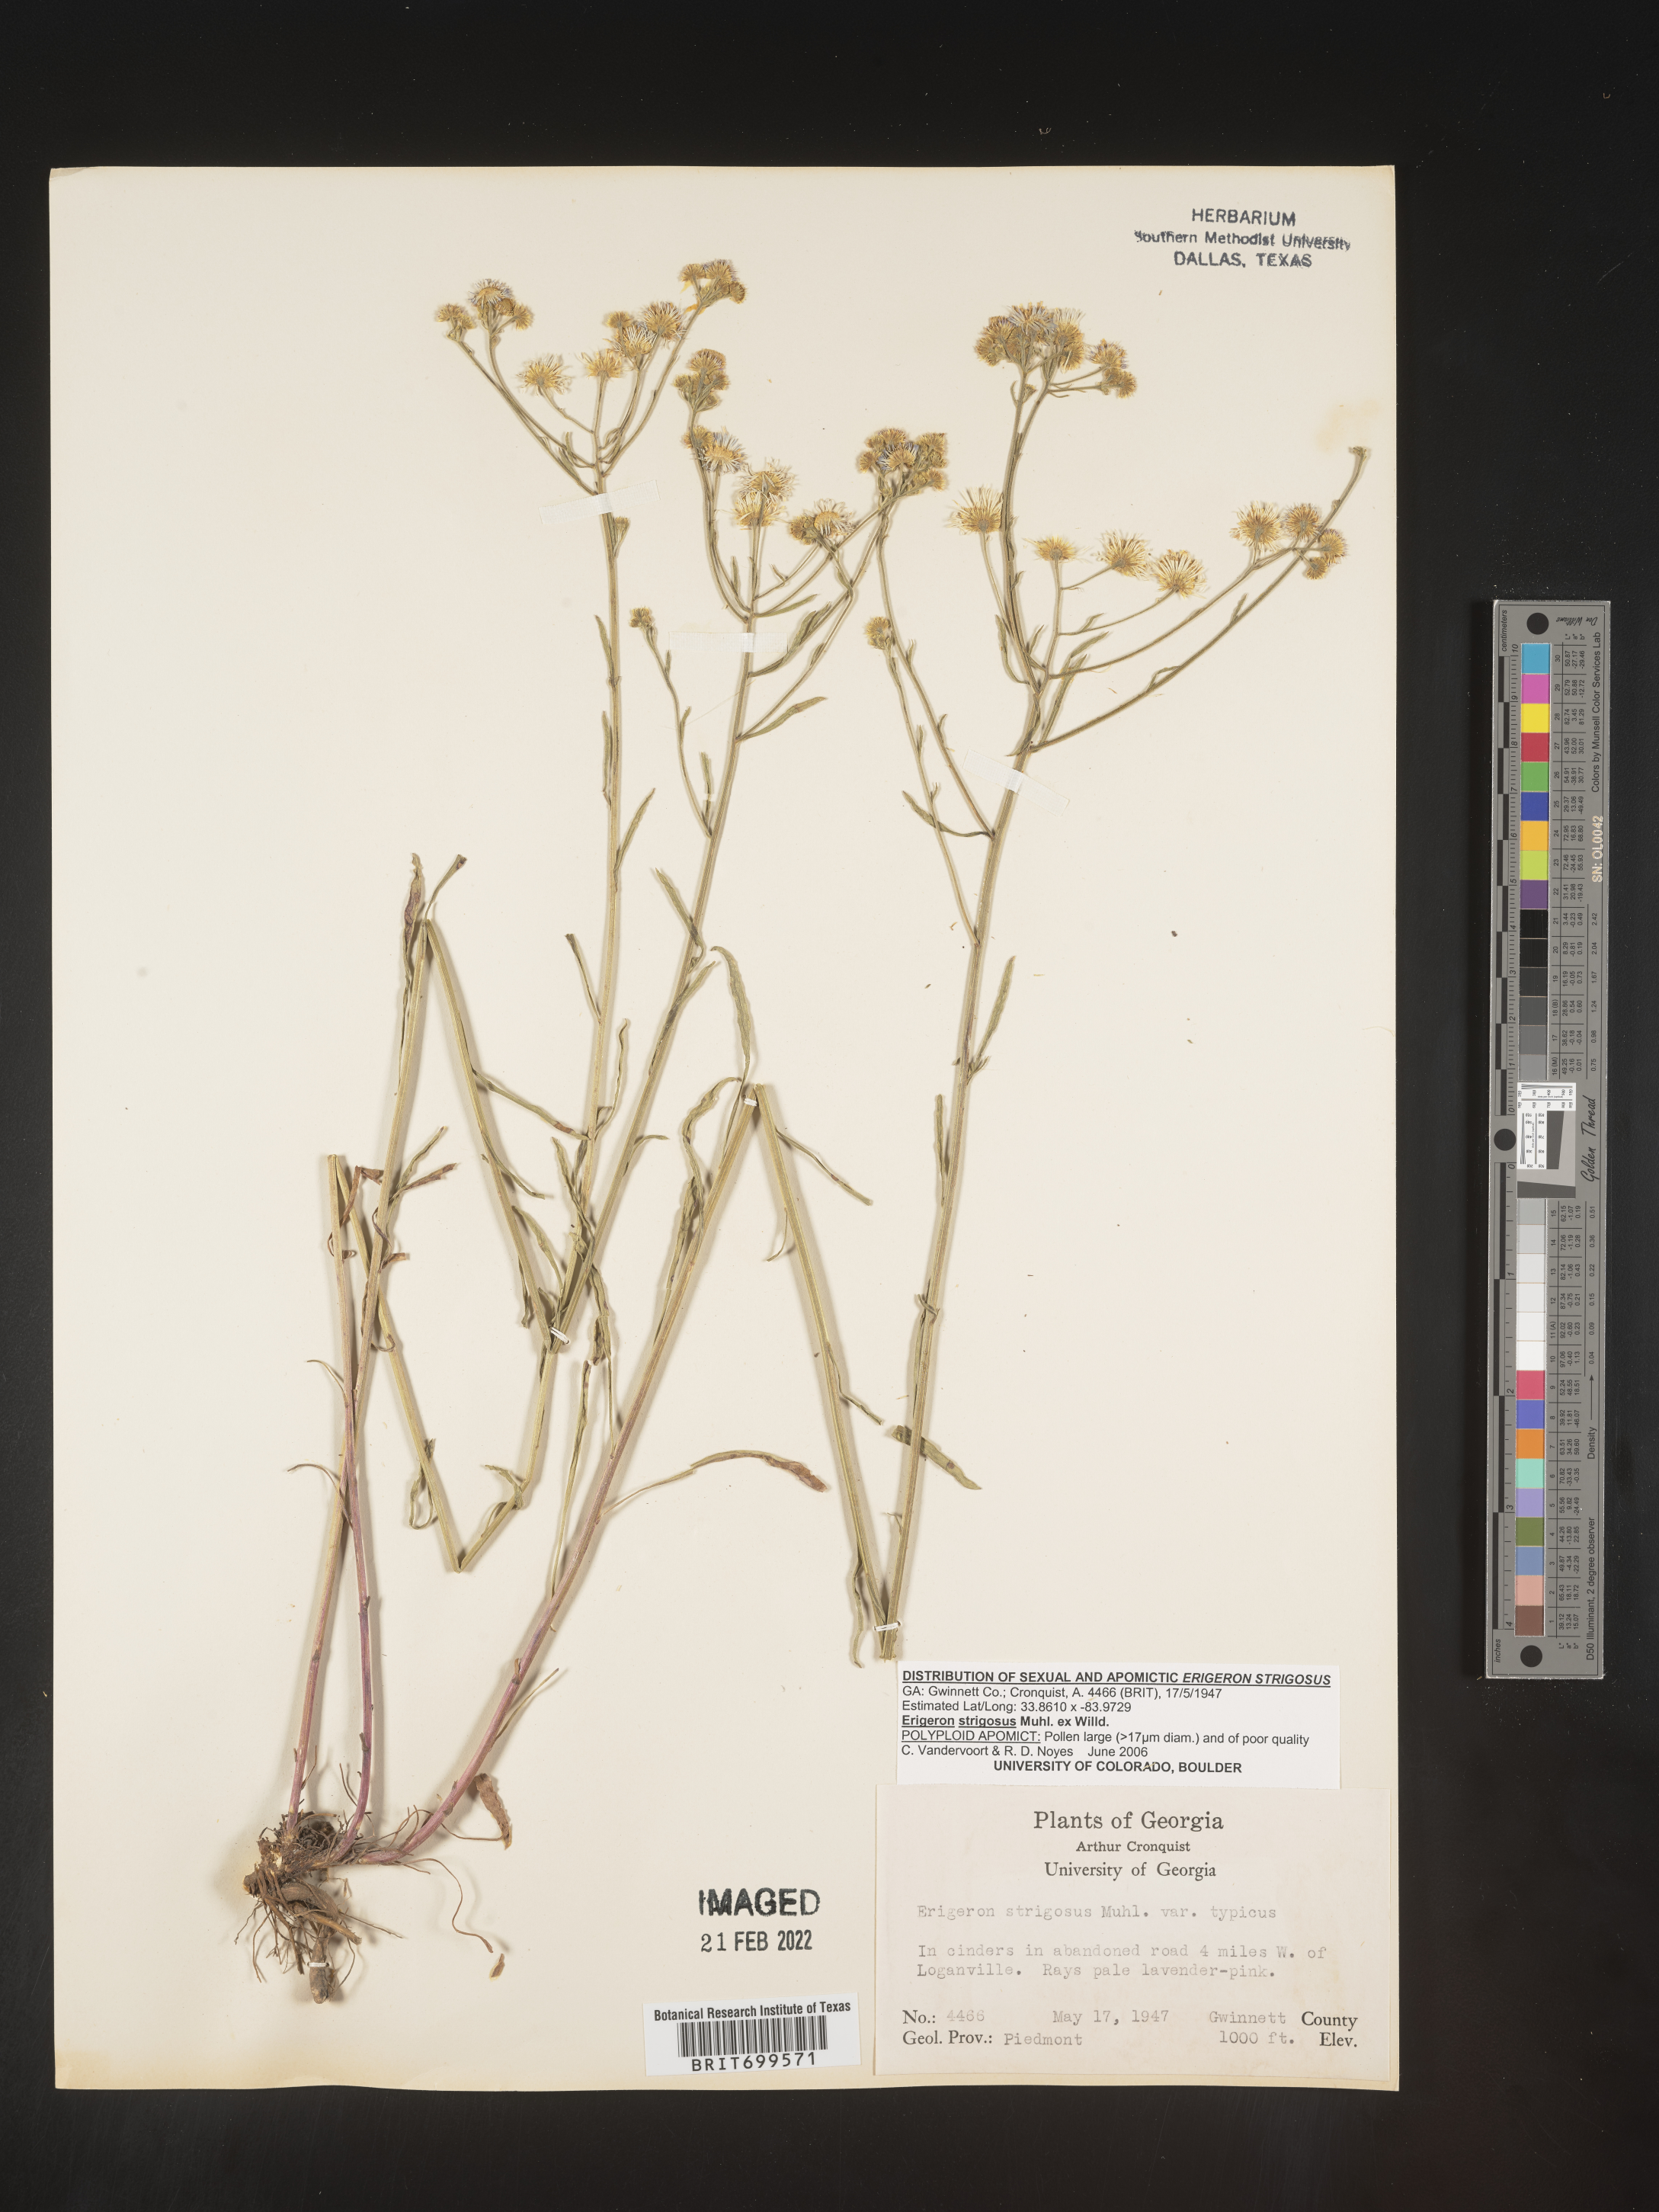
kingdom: Plantae
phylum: Tracheophyta
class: Magnoliopsida
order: Asterales
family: Asteraceae
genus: Erigeron
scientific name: Erigeron strigosus
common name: Common eastern fleabane
